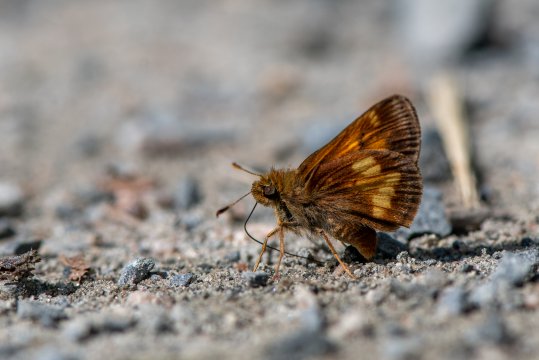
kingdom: Animalia
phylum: Arthropoda
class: Insecta
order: Lepidoptera
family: Hesperiidae
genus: Lon
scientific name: Lon hobomok
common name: Hobomok Skipper
